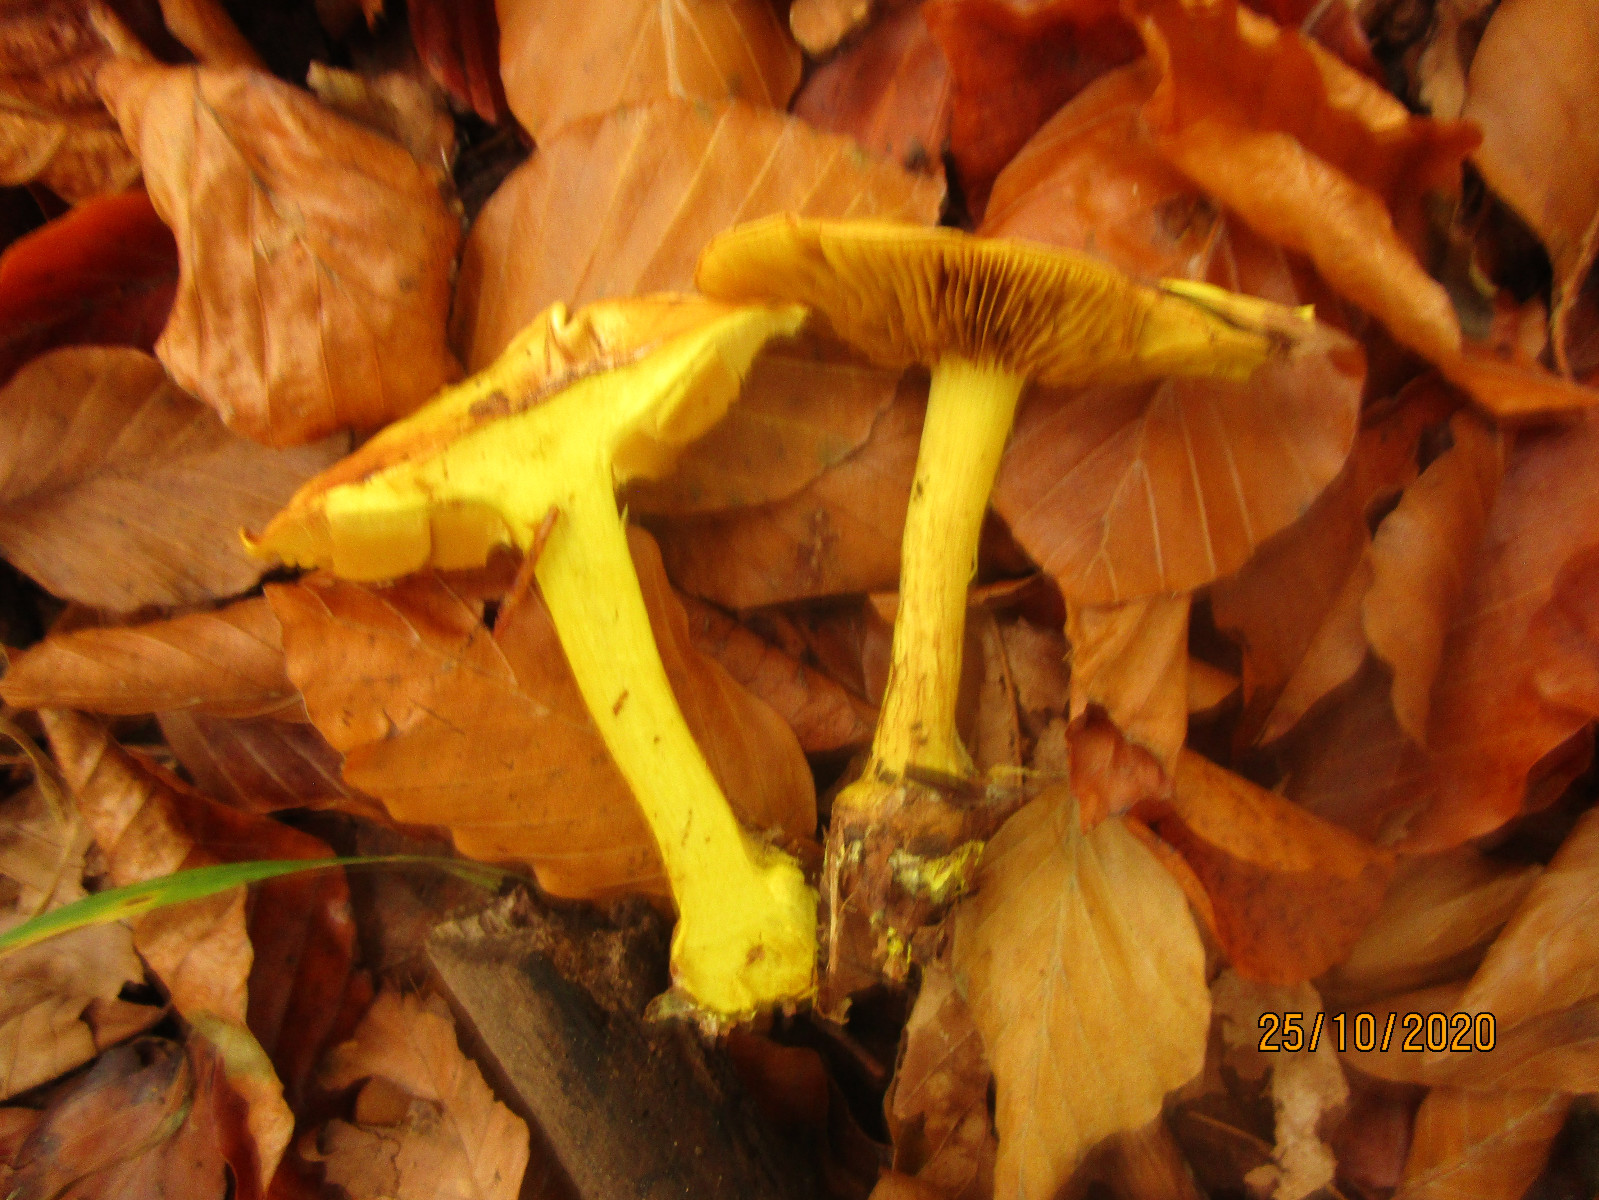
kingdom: Fungi
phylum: Basidiomycota
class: Agaricomycetes
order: Agaricales
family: Cortinariaceae
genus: Calonarius
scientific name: Calonarius splendens
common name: sirene-slørhat
